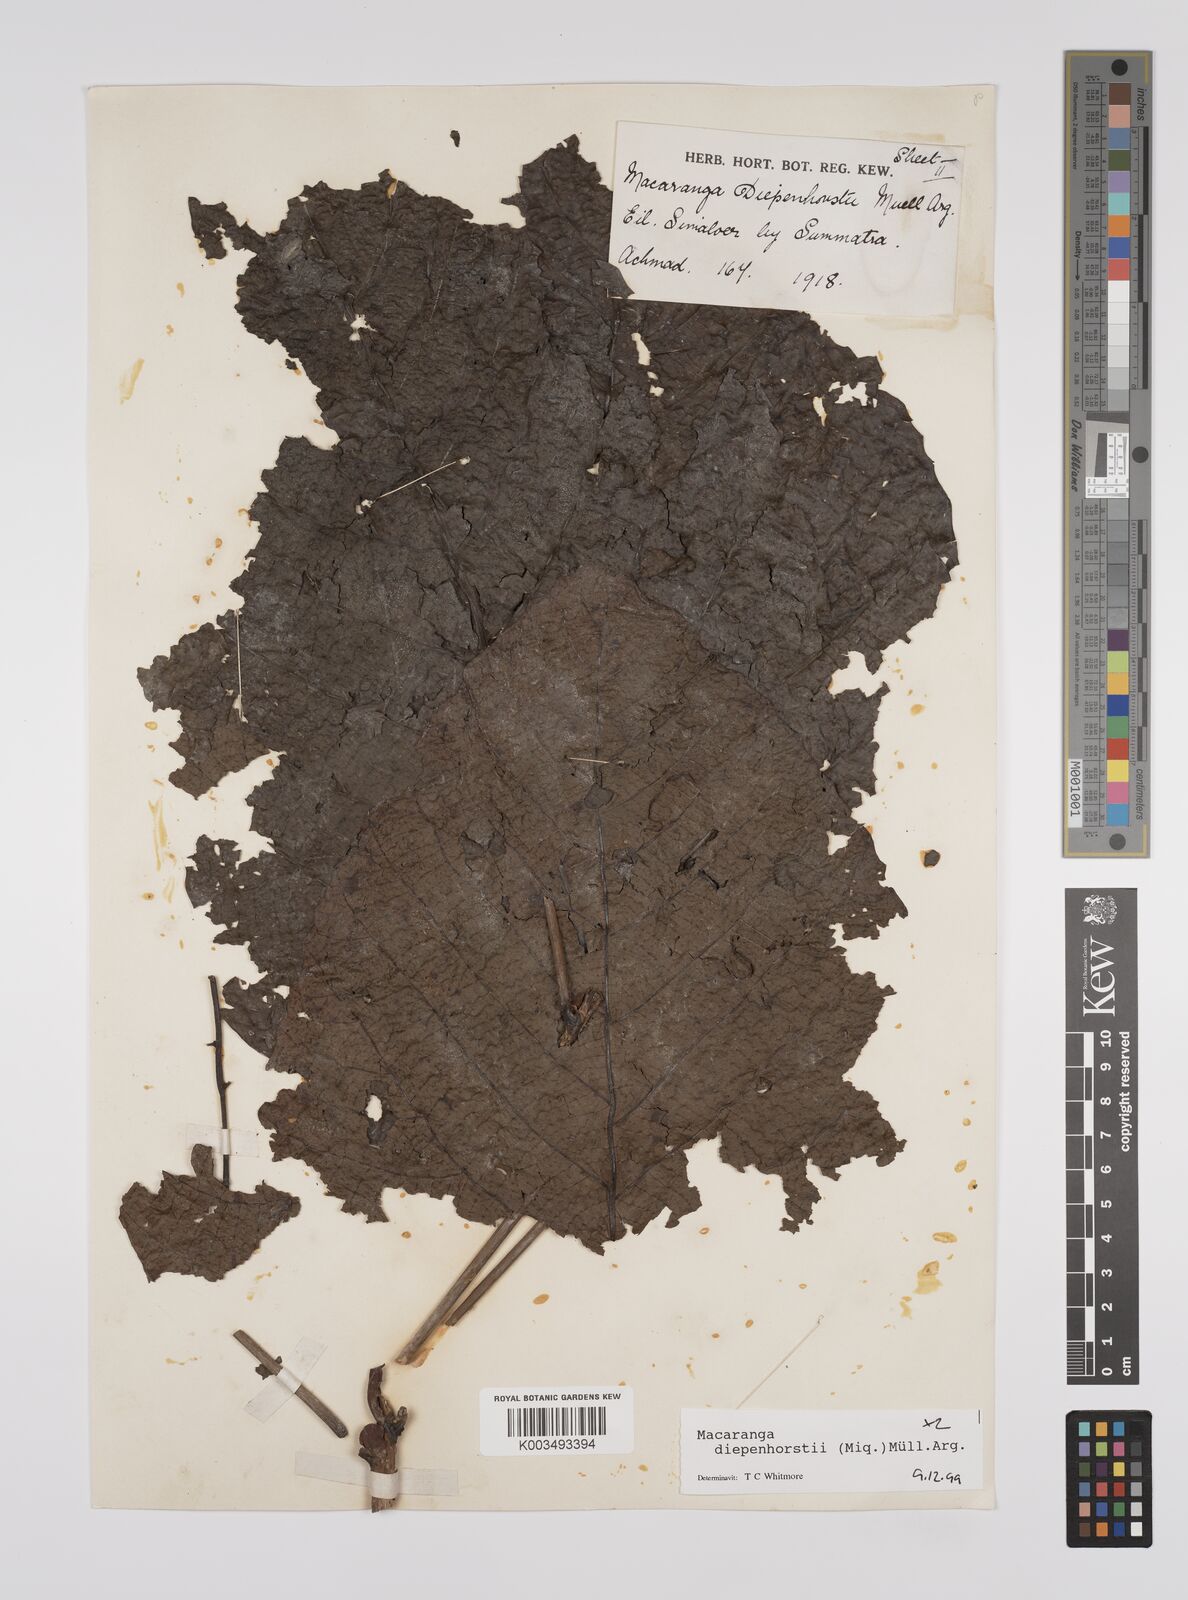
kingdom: Plantae
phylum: Tracheophyta
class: Magnoliopsida
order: Malpighiales
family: Euphorbiaceae
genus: Macaranga
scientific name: Macaranga diepenhorstii
